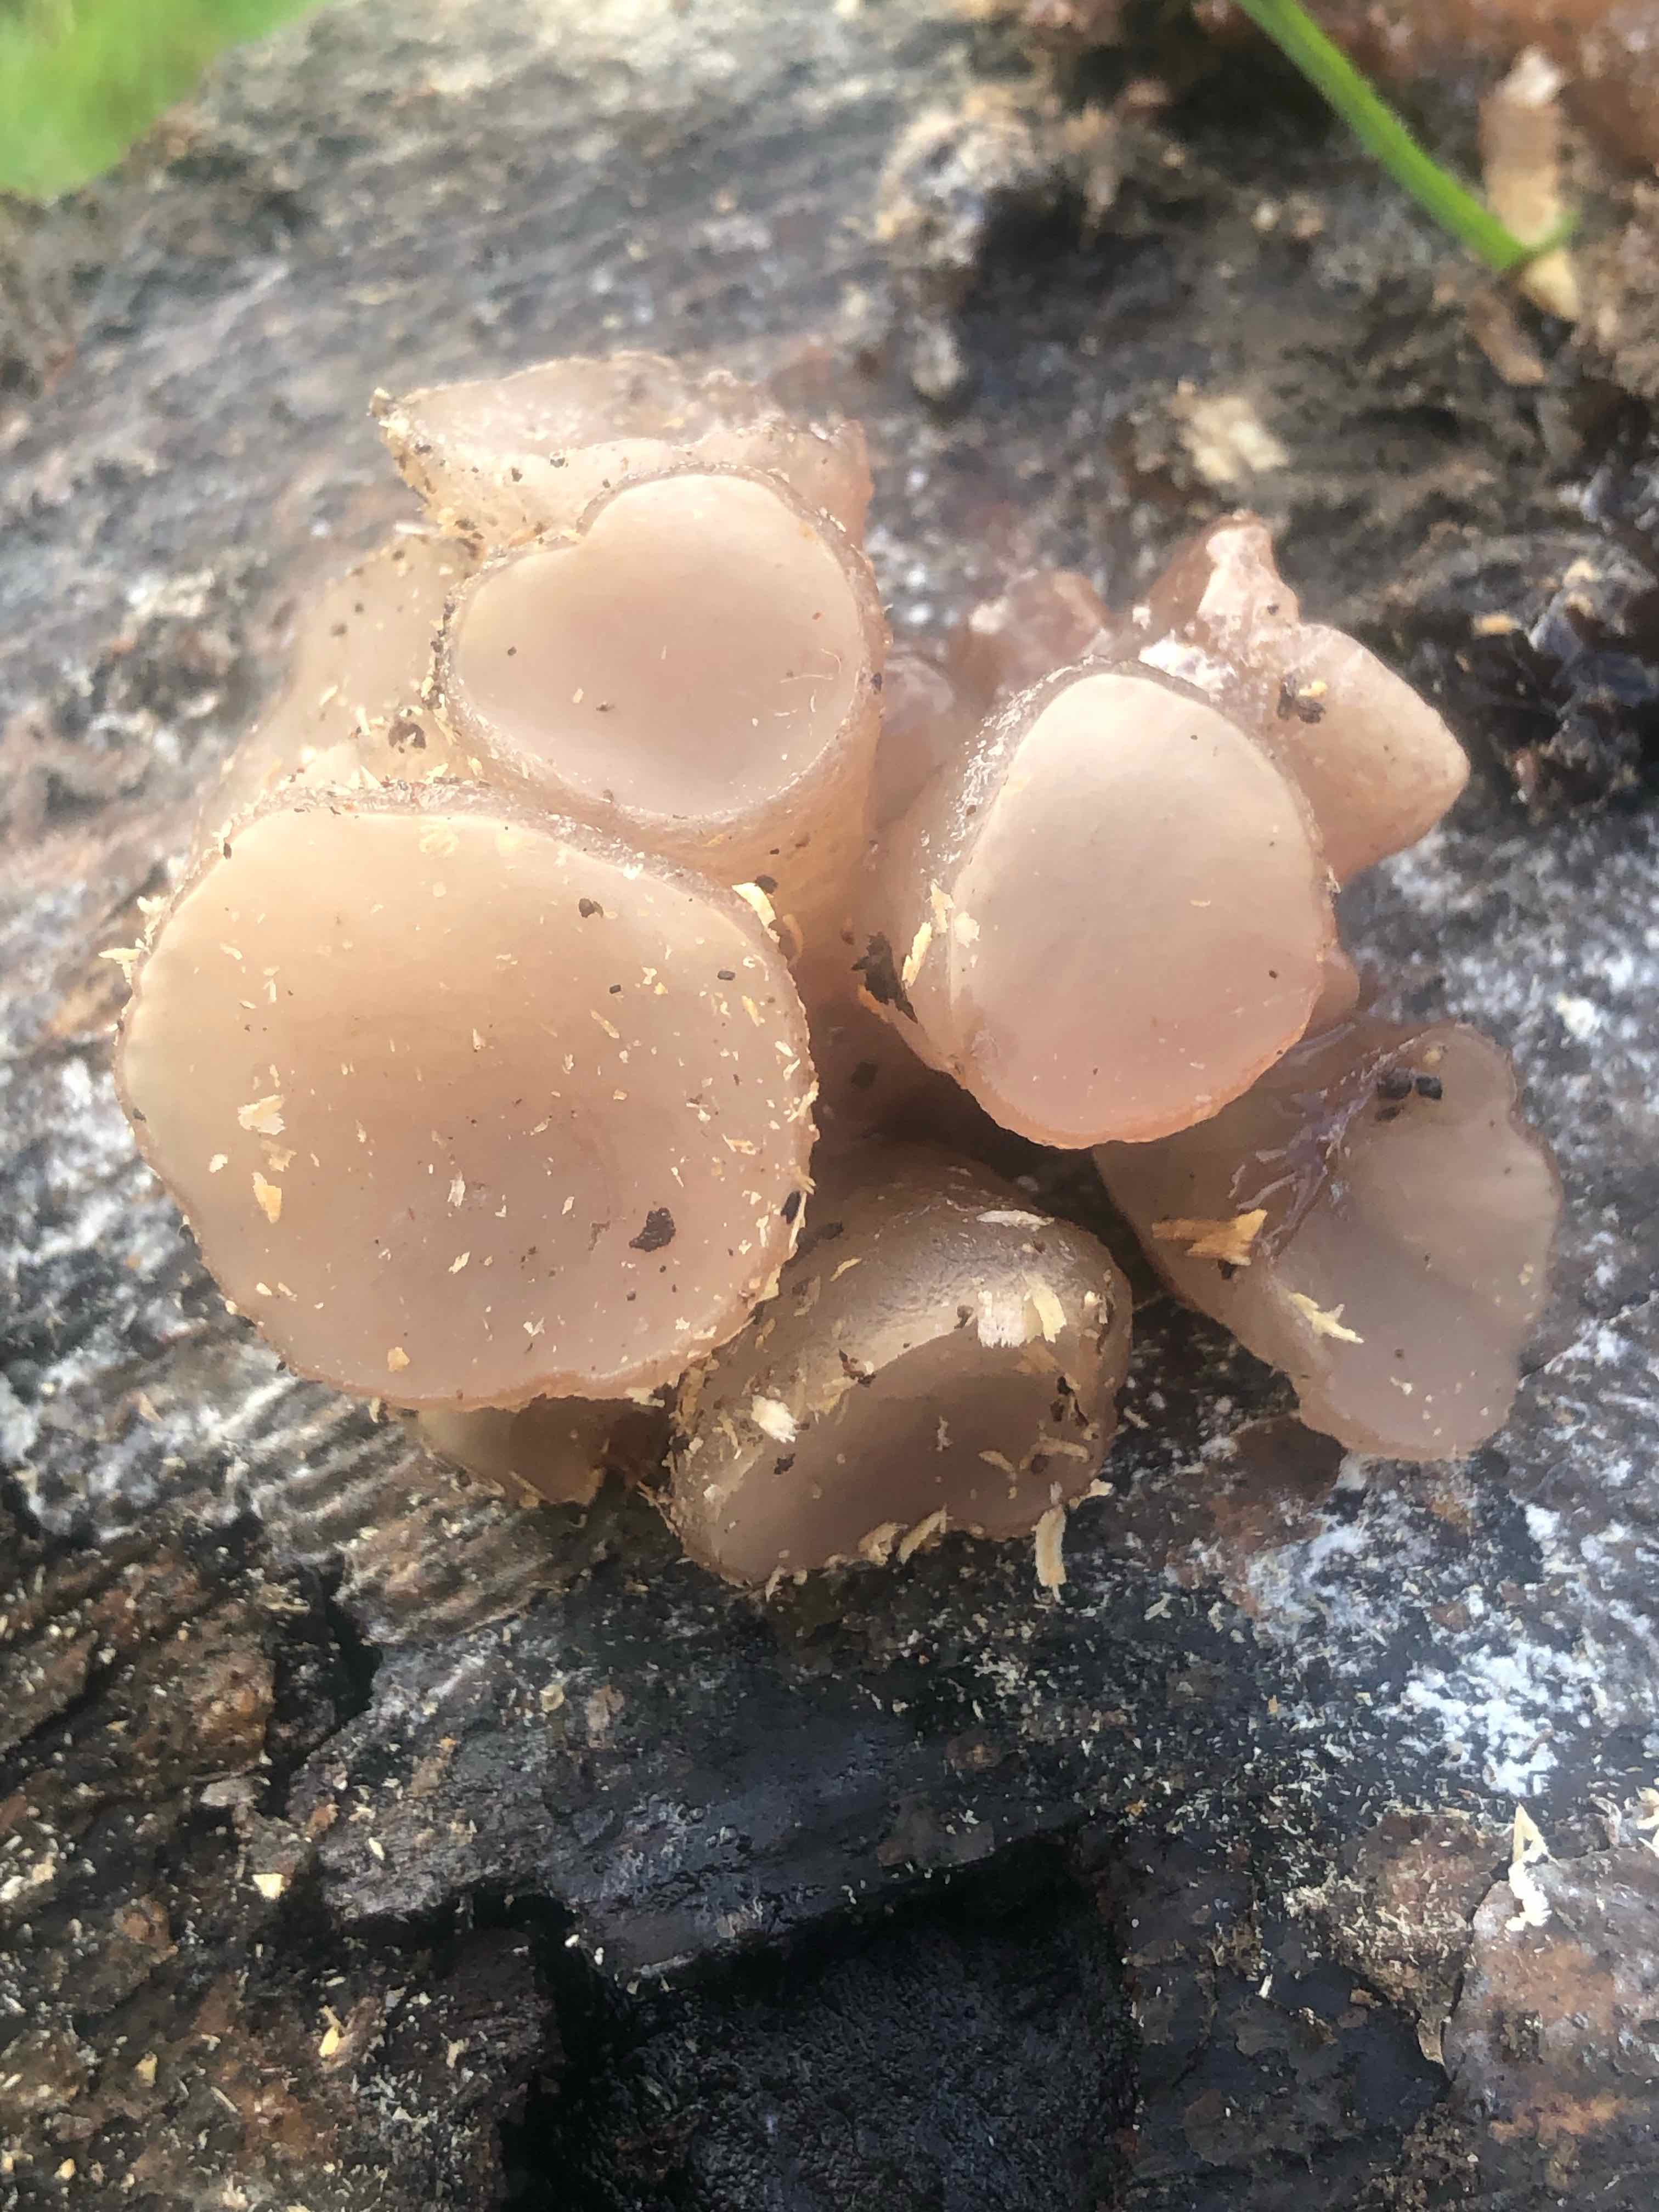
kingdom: Fungi
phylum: Ascomycota
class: Leotiomycetes
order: Helotiales
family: Gelatinodiscaceae
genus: Neobulgaria
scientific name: Neobulgaria pura
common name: bleg bævreskive
